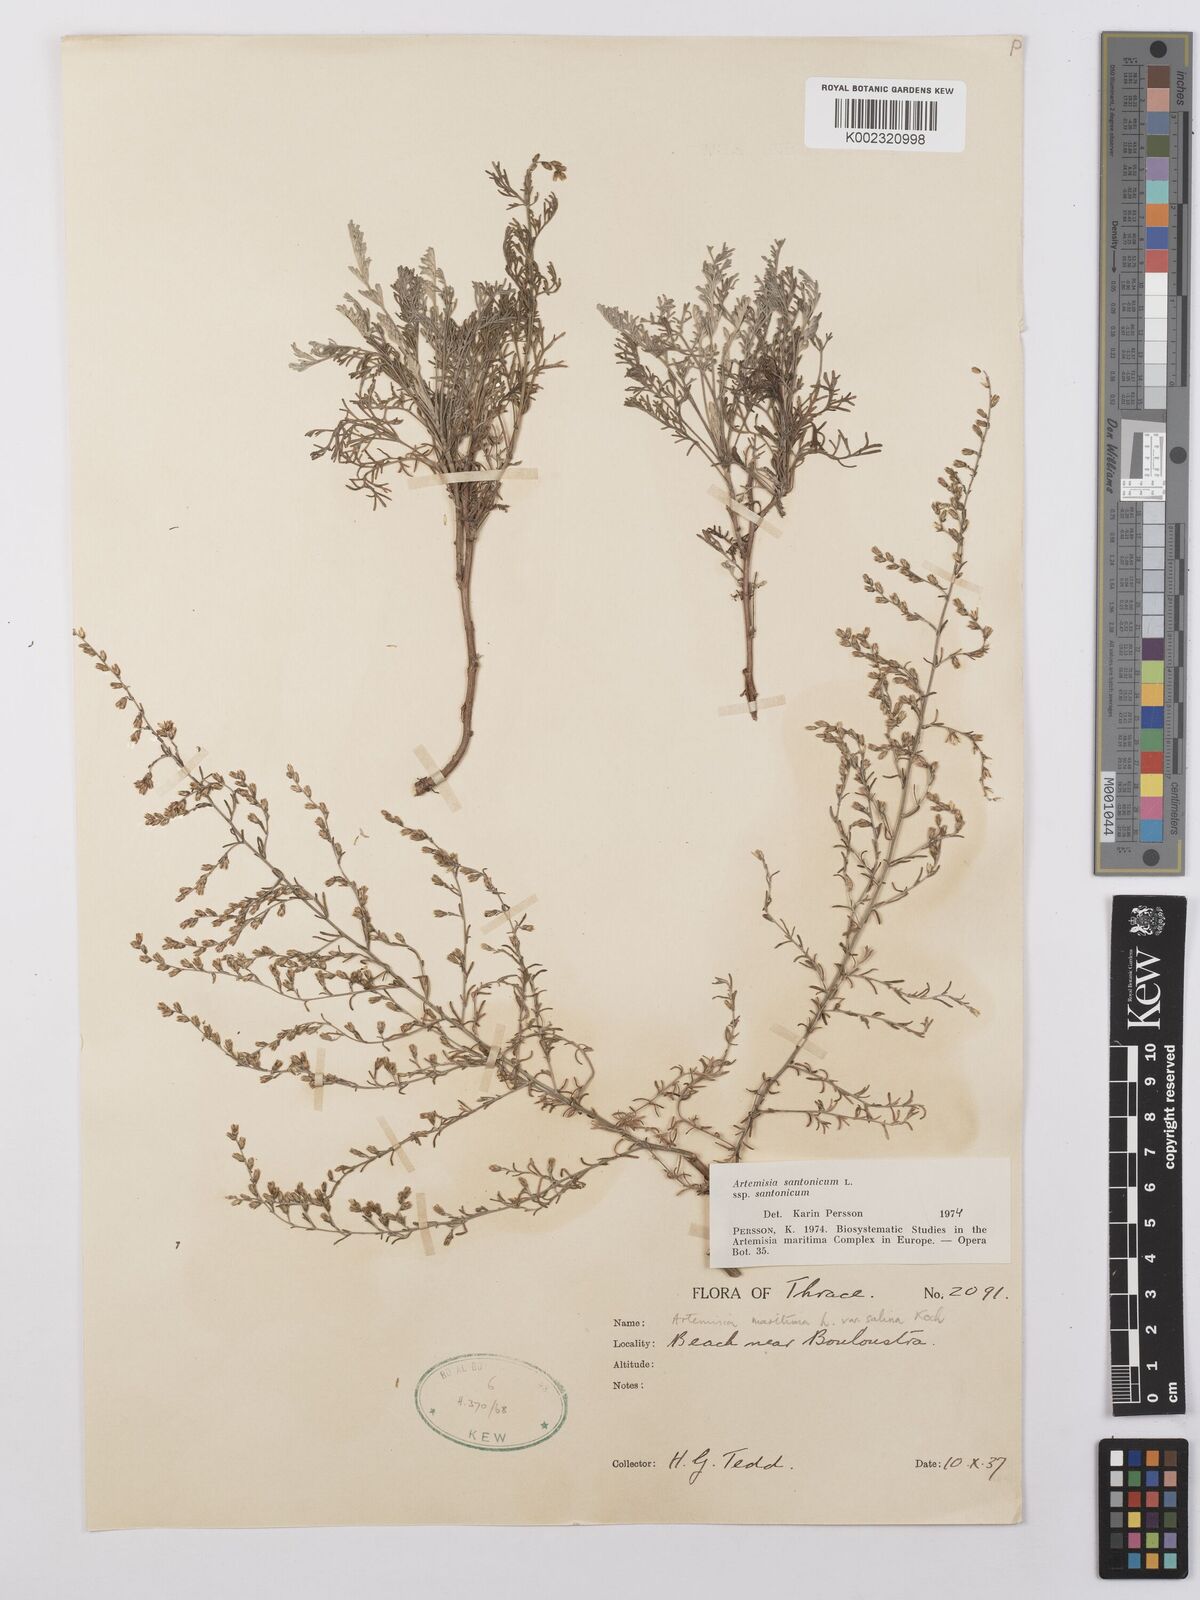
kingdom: Plantae
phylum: Tracheophyta
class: Magnoliopsida
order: Asterales
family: Asteraceae
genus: Artemisia
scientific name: Artemisia santonicum
